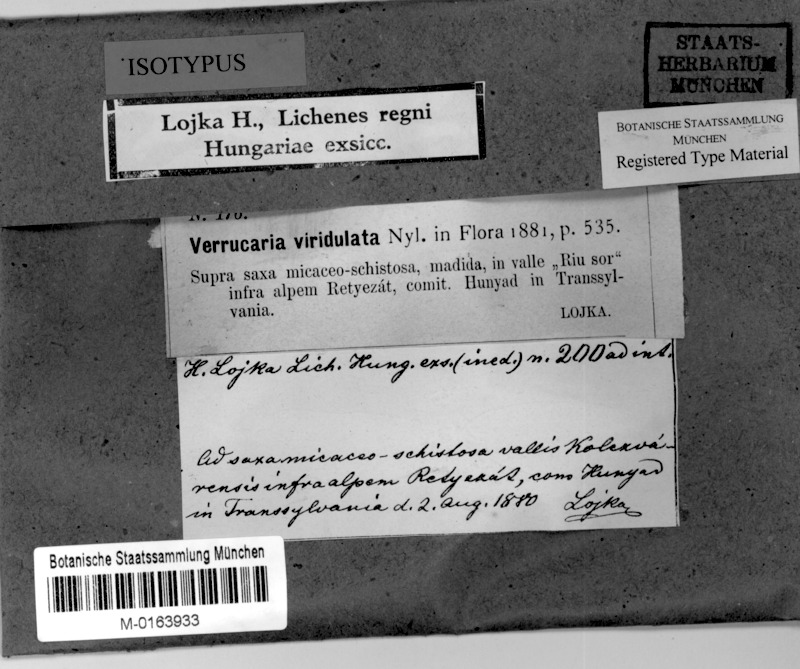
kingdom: Fungi
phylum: Ascomycota
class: Eurotiomycetes
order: Verrucariales
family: Verrucariaceae
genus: Verrucaria
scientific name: Verrucaria viridulata
